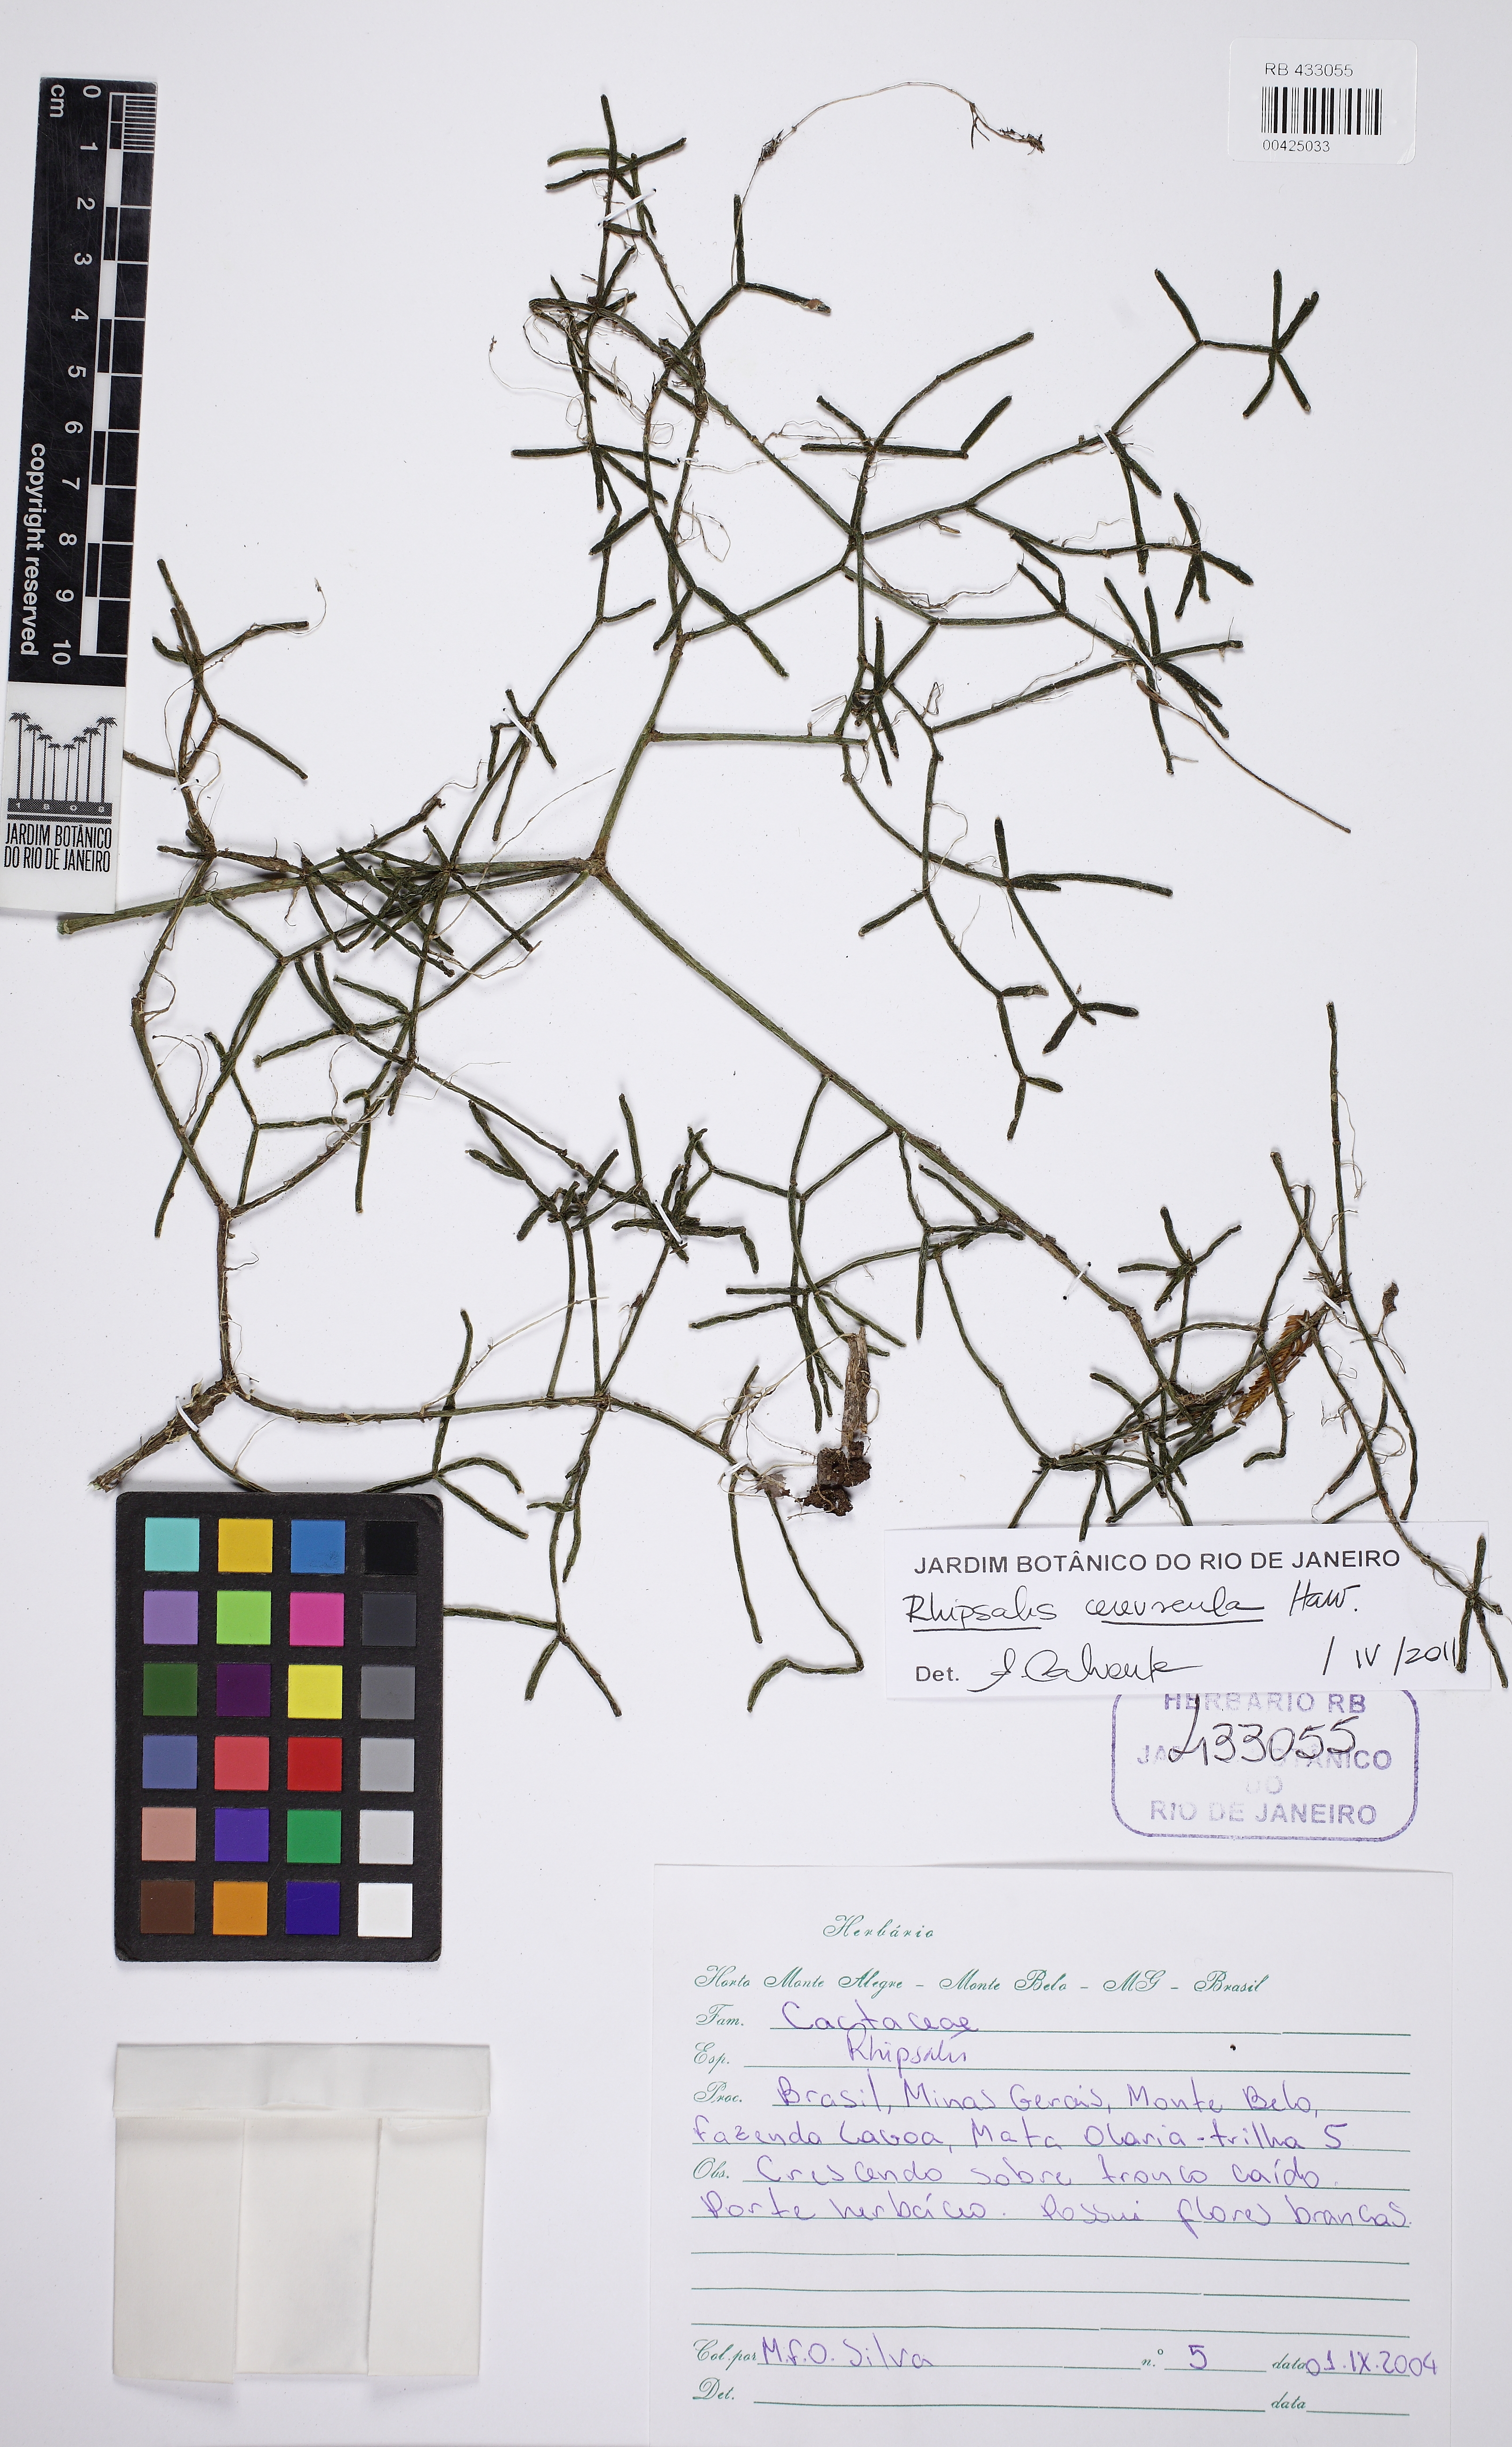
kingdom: Plantae
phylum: Tracheophyta
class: Magnoliopsida
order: Caryophyllales
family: Cactaceae
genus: Rhipsalis
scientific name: Rhipsalis cereuscula
